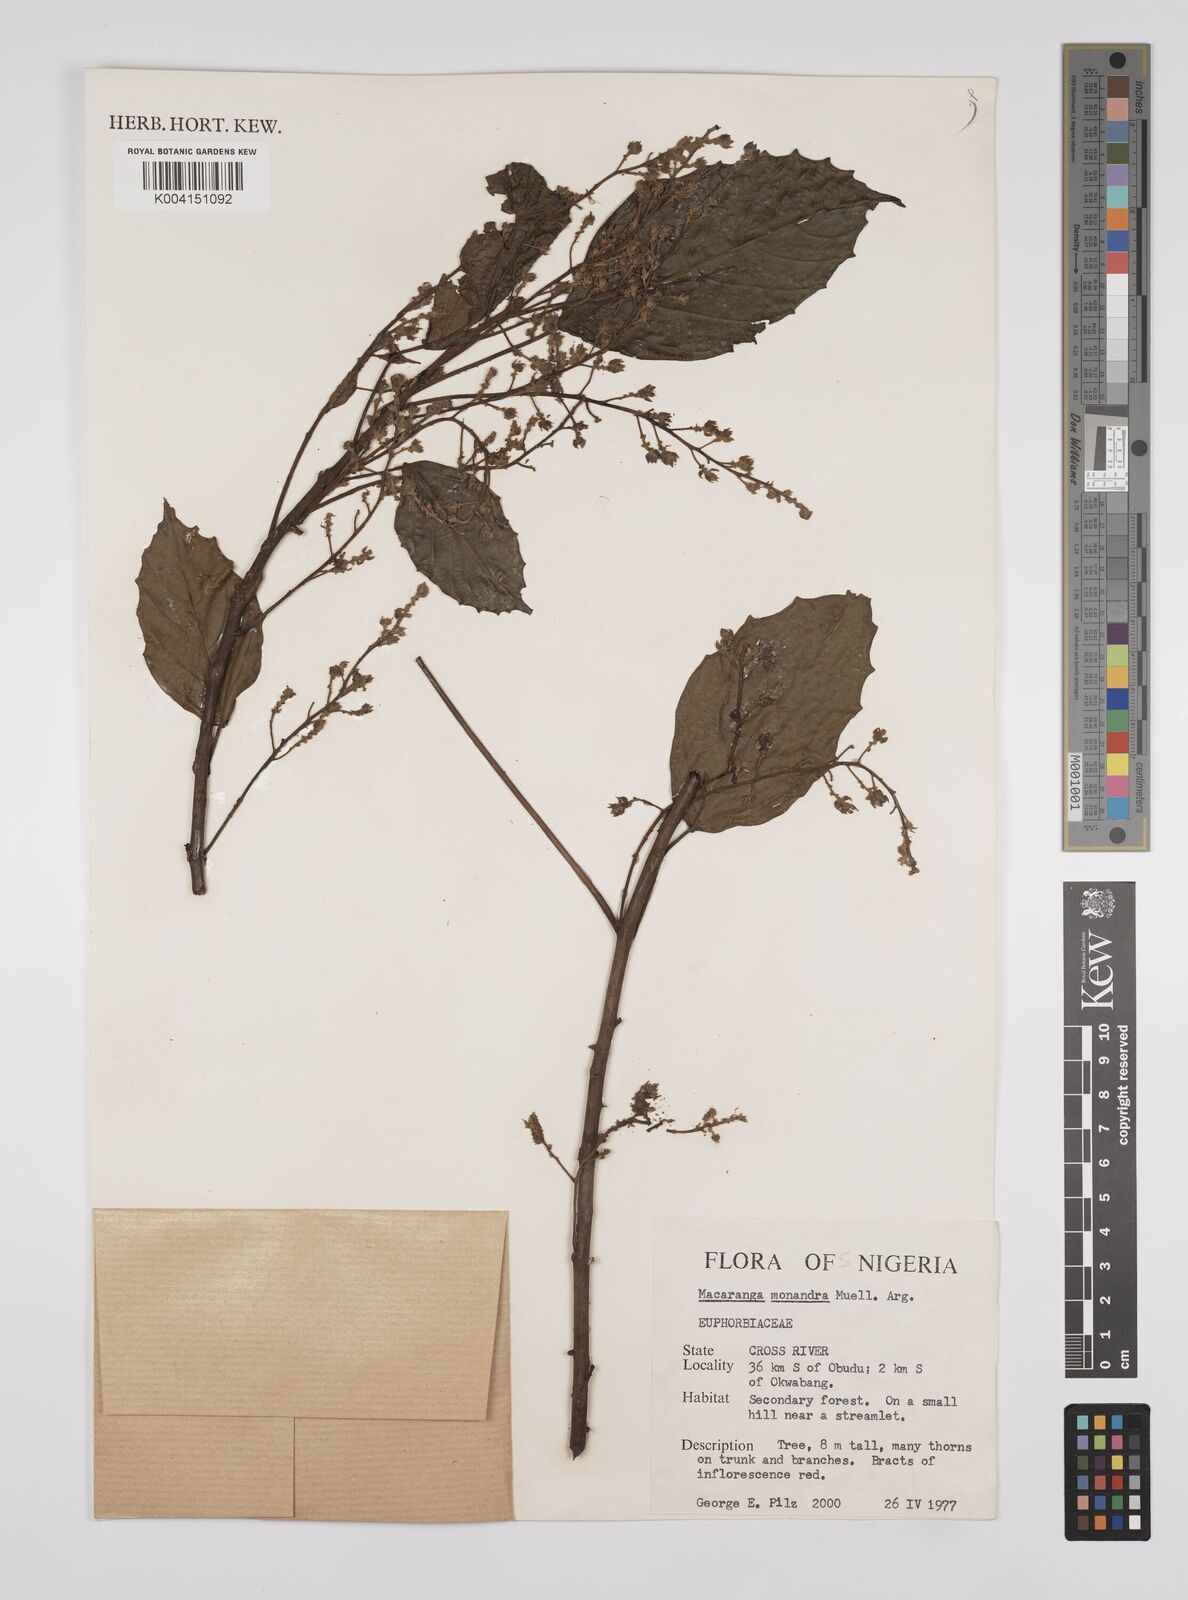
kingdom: Plantae
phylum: Tracheophyta
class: Magnoliopsida
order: Malpighiales
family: Euphorbiaceae
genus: Macaranga
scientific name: Macaranga monandra
